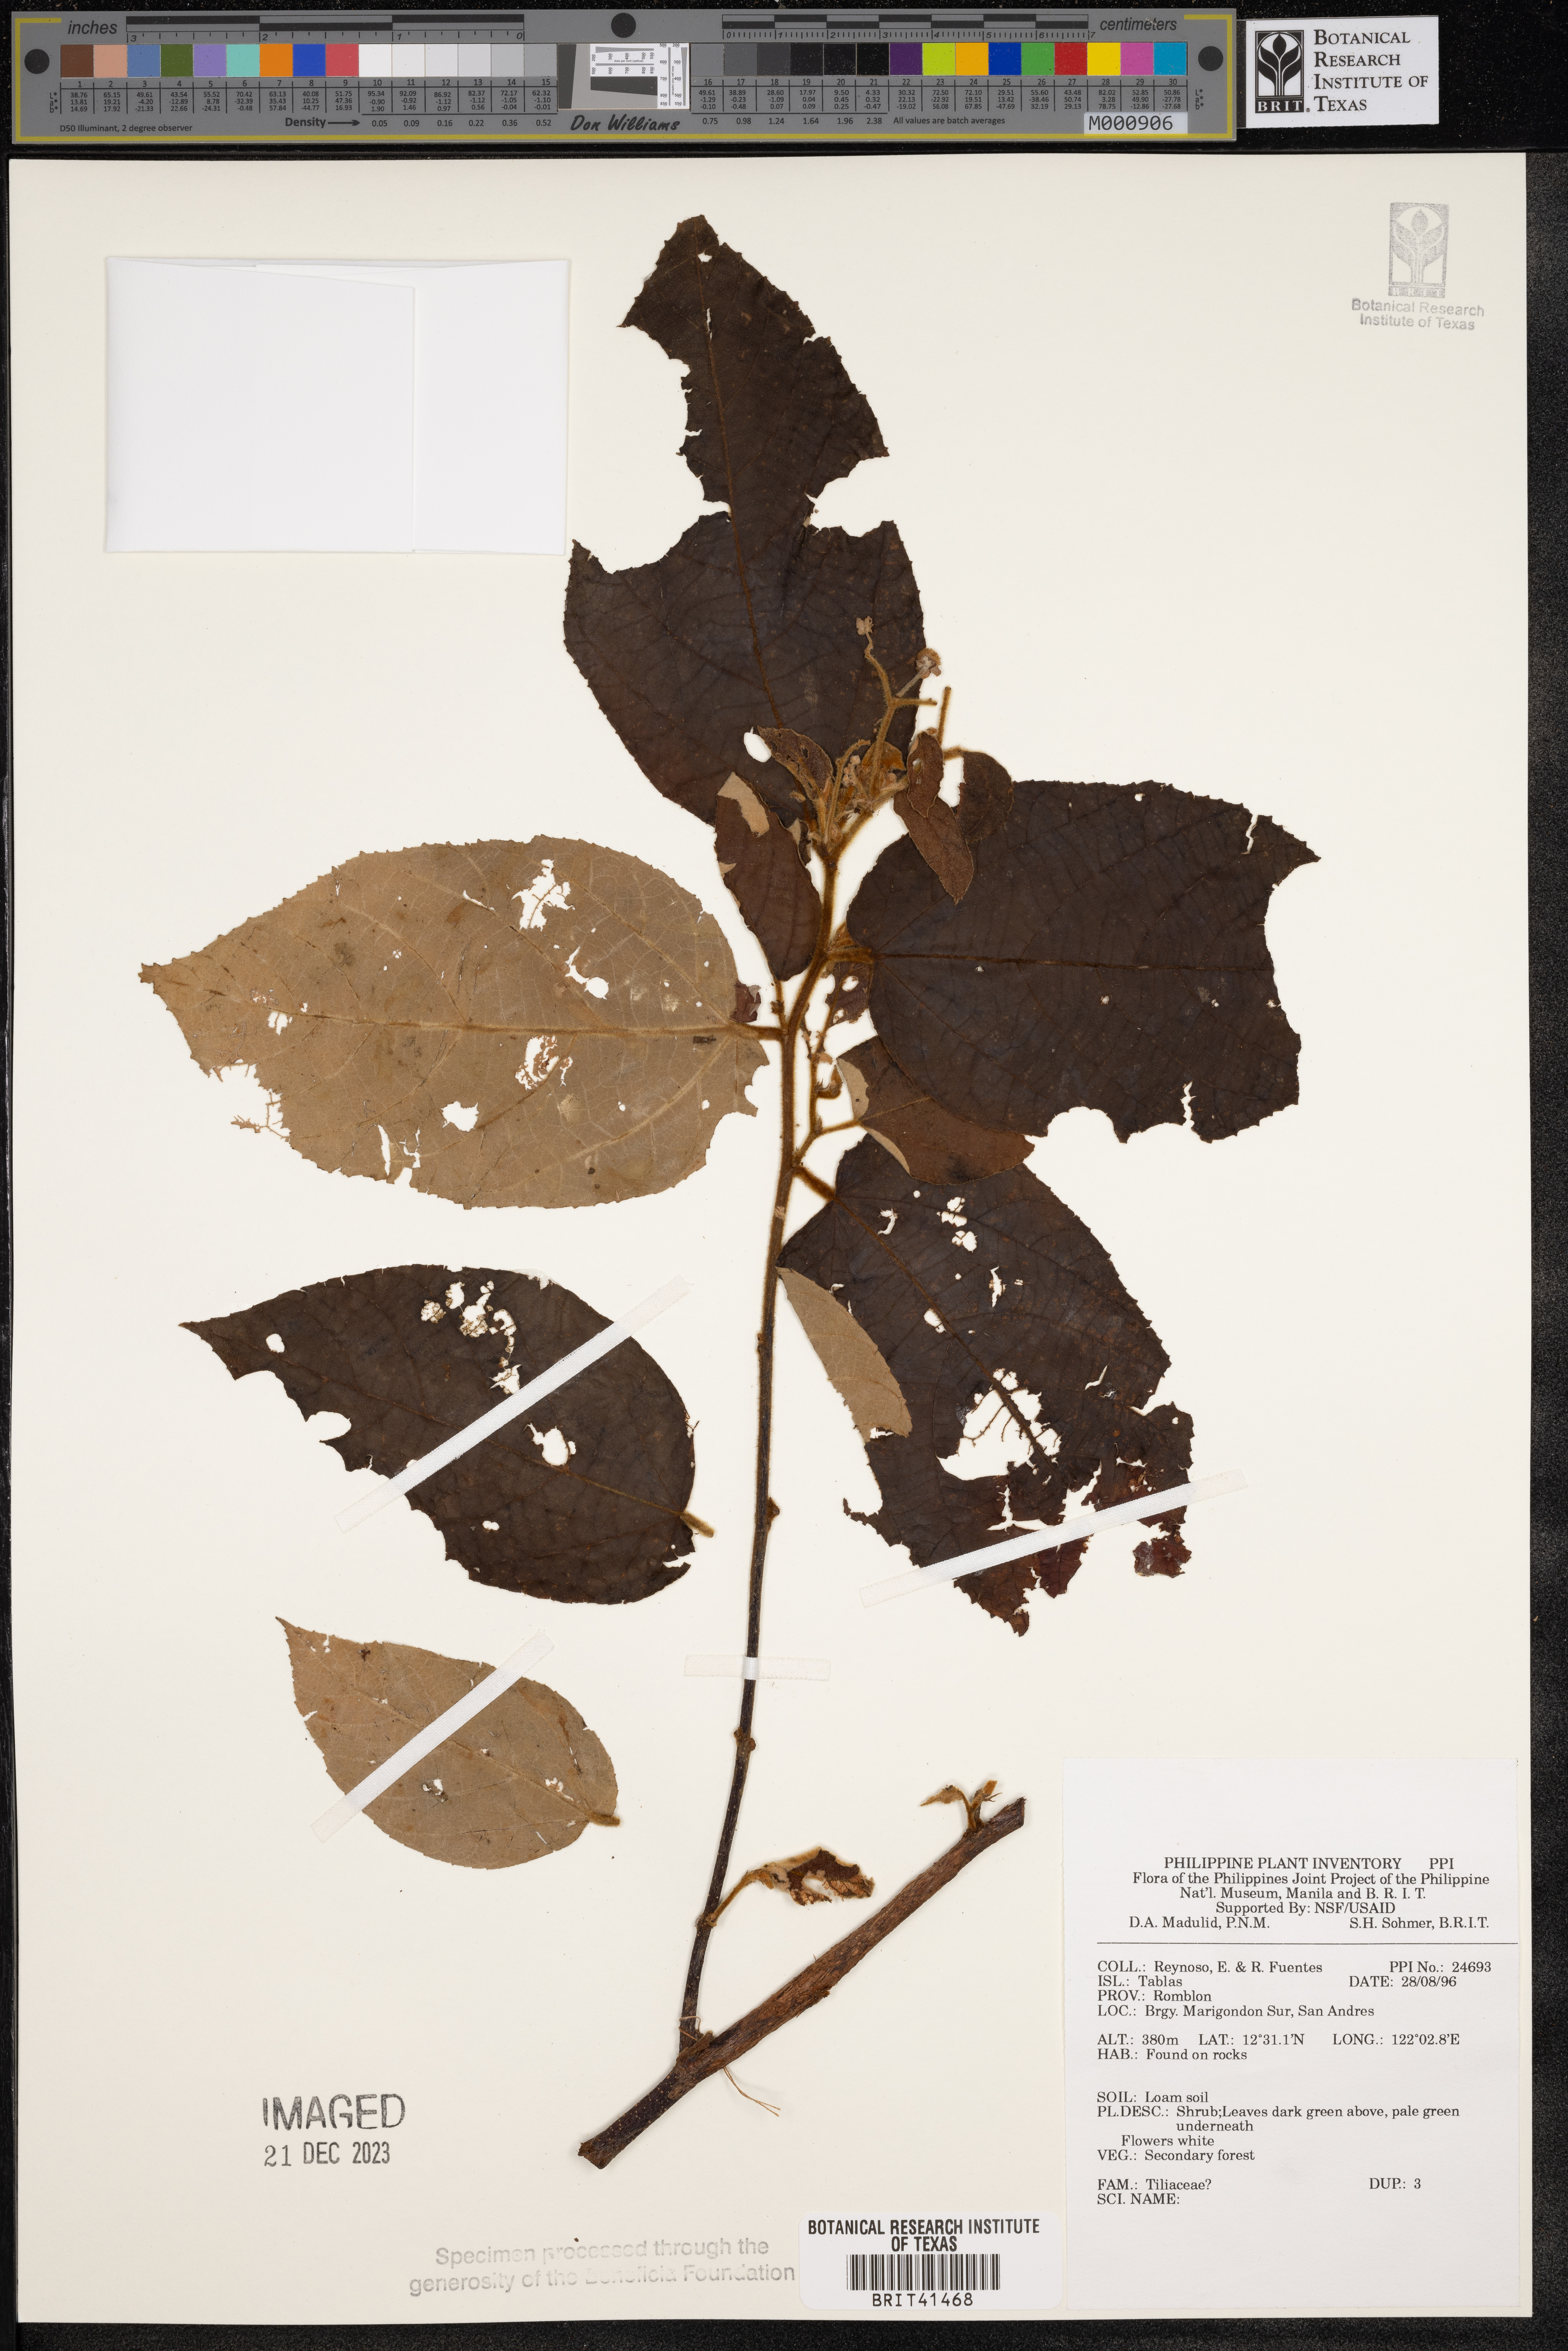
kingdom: Plantae
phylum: Tracheophyta
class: Magnoliopsida
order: Malvales
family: Tiliaceae
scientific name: Tiliaceae
